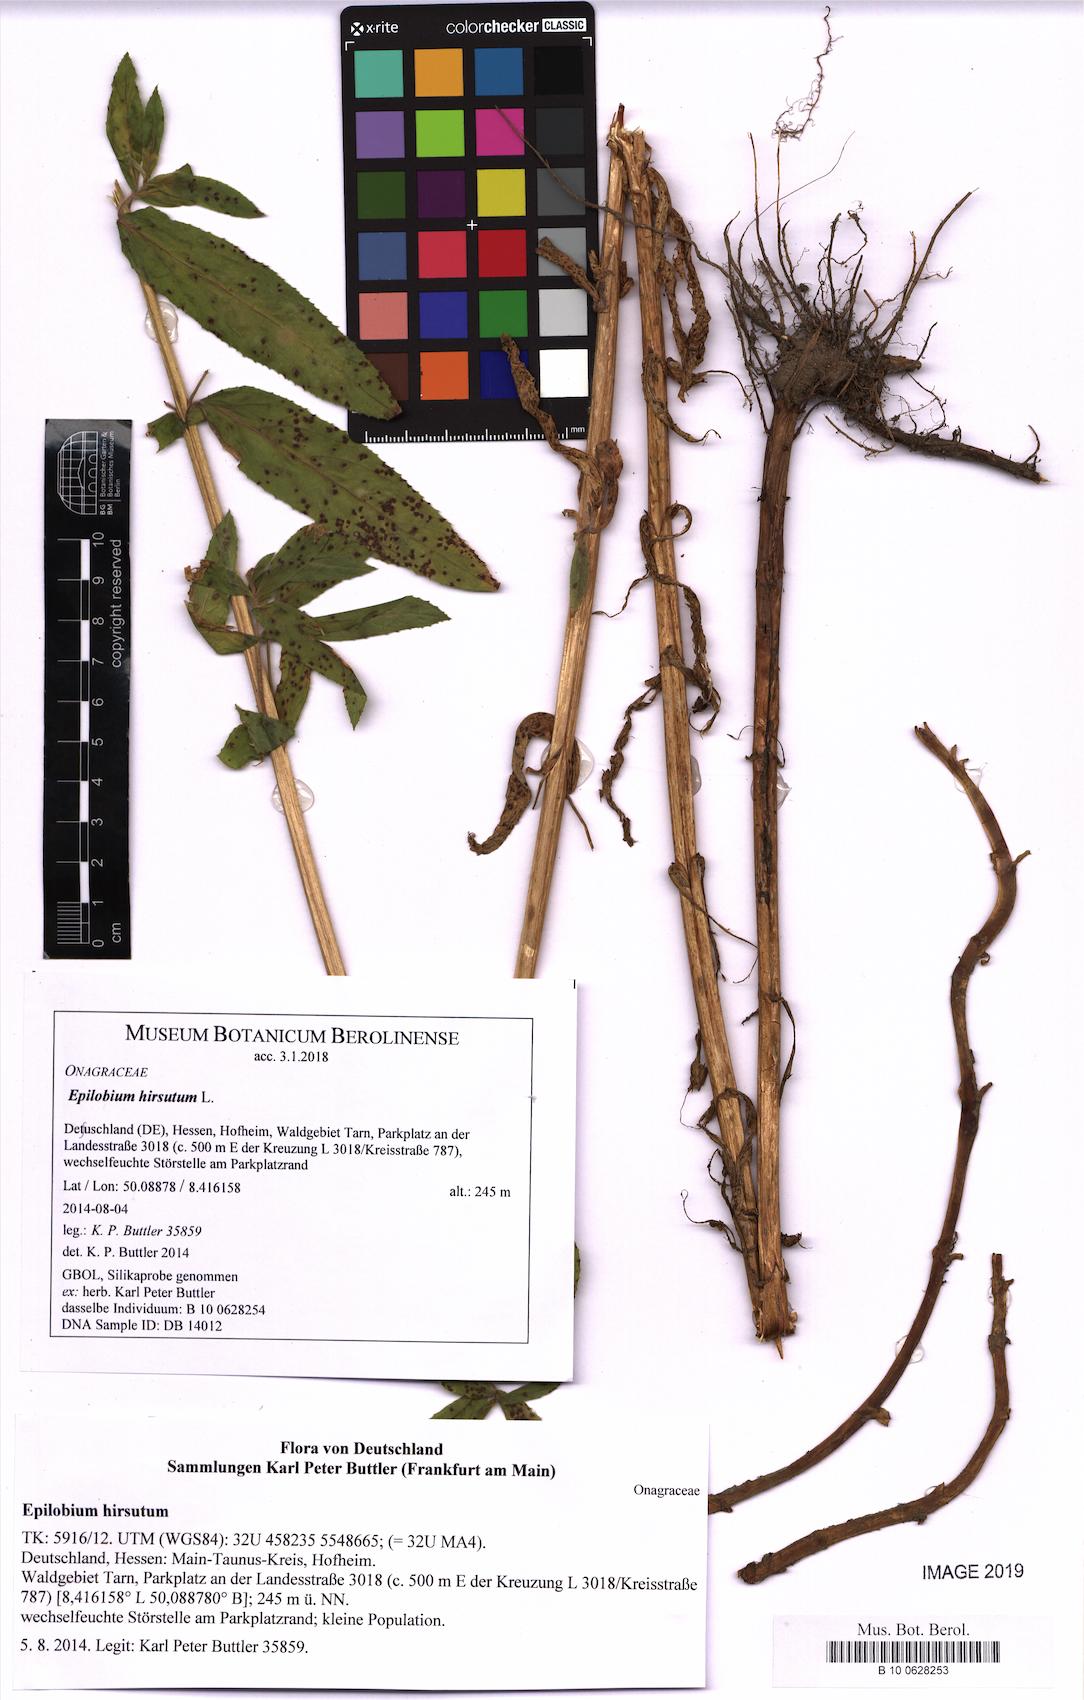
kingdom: Plantae
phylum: Tracheophyta
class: Magnoliopsida
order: Myrtales
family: Onagraceae
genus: Epilobium
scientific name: Epilobium hirsutum
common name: Great willowherb
